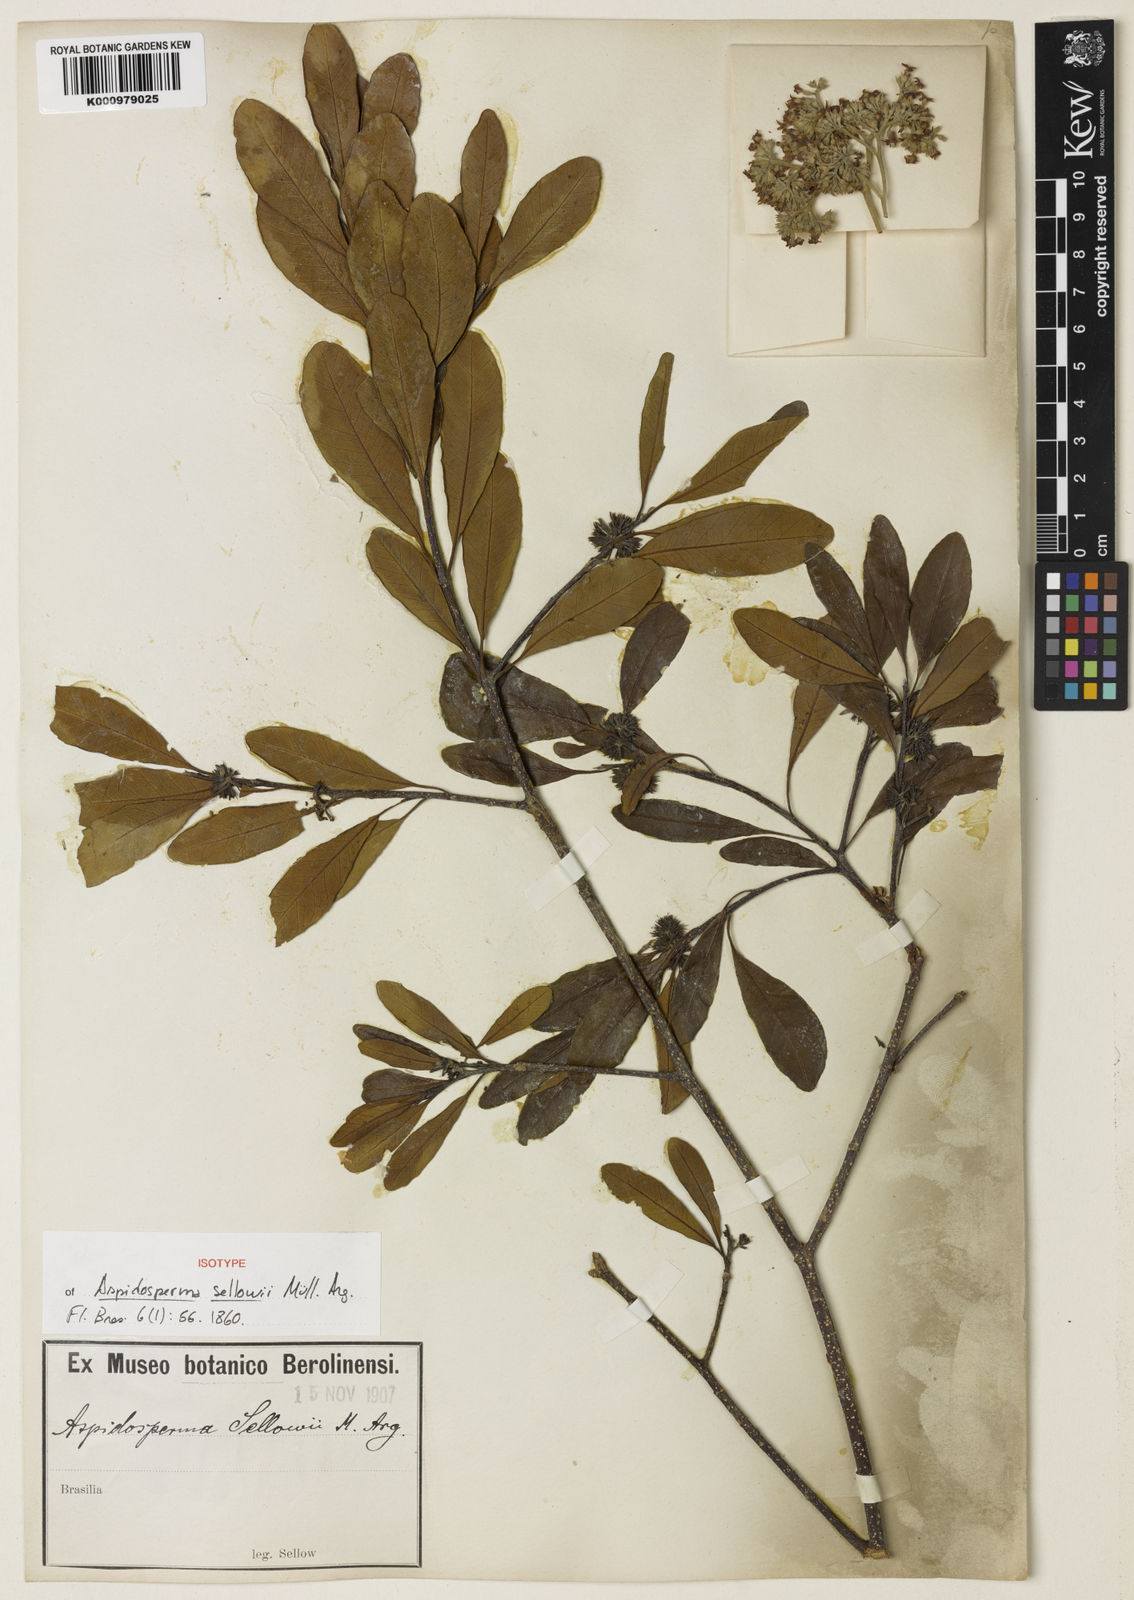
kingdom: Plantae
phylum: Tracheophyta
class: Magnoliopsida
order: Gentianales
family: Apocynaceae
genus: Aspidosperma
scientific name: Aspidosperma
